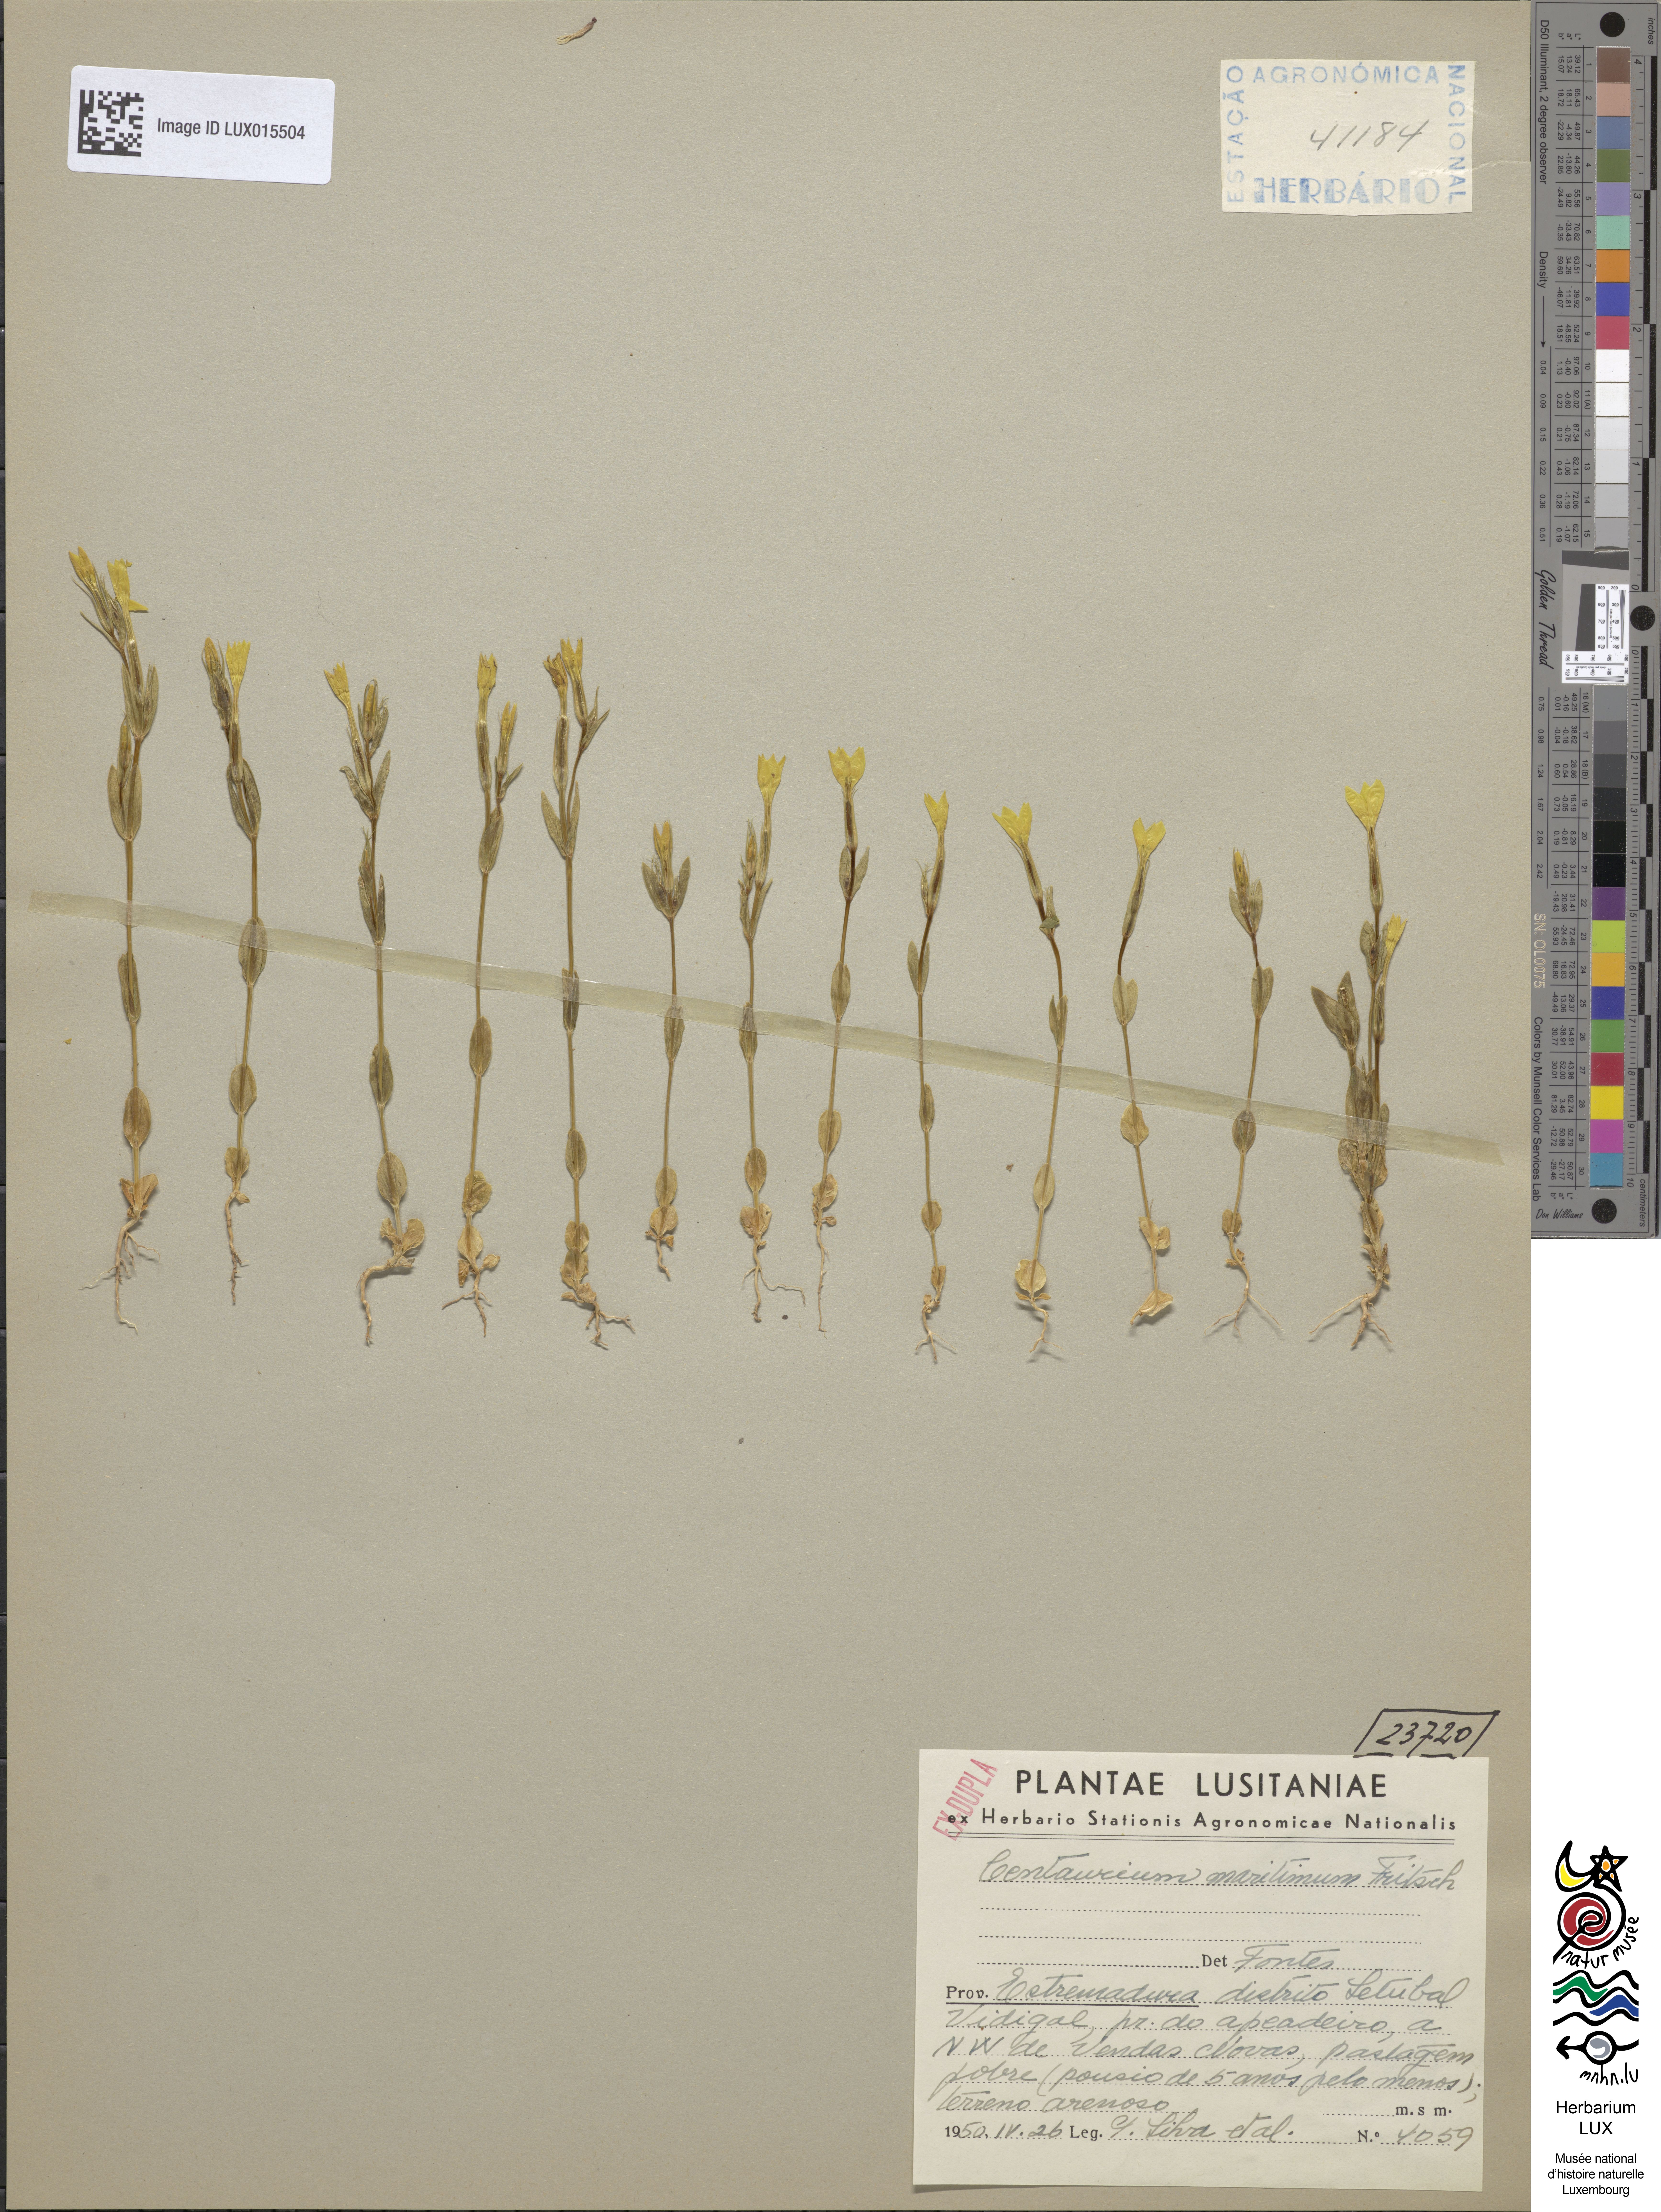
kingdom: Plantae
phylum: Tracheophyta
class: Magnoliopsida
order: Gentianales
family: Gentianaceae
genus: Centaurium
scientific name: Centaurium maritimum
